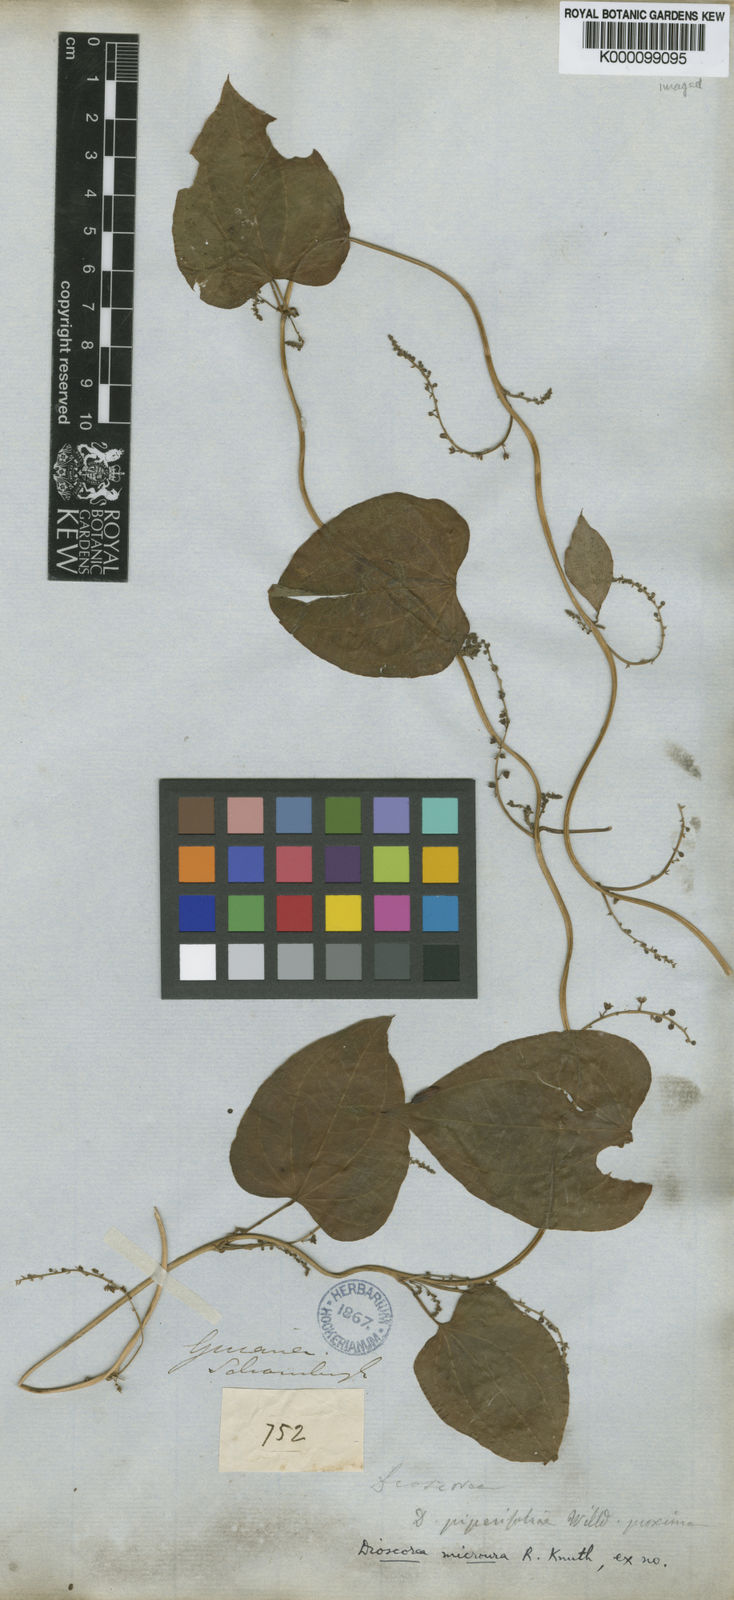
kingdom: Plantae
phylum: Tracheophyta
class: Liliopsida
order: Dioscoreales
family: Dioscoreaceae
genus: Dioscorea
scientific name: Dioscorea piperifolia
